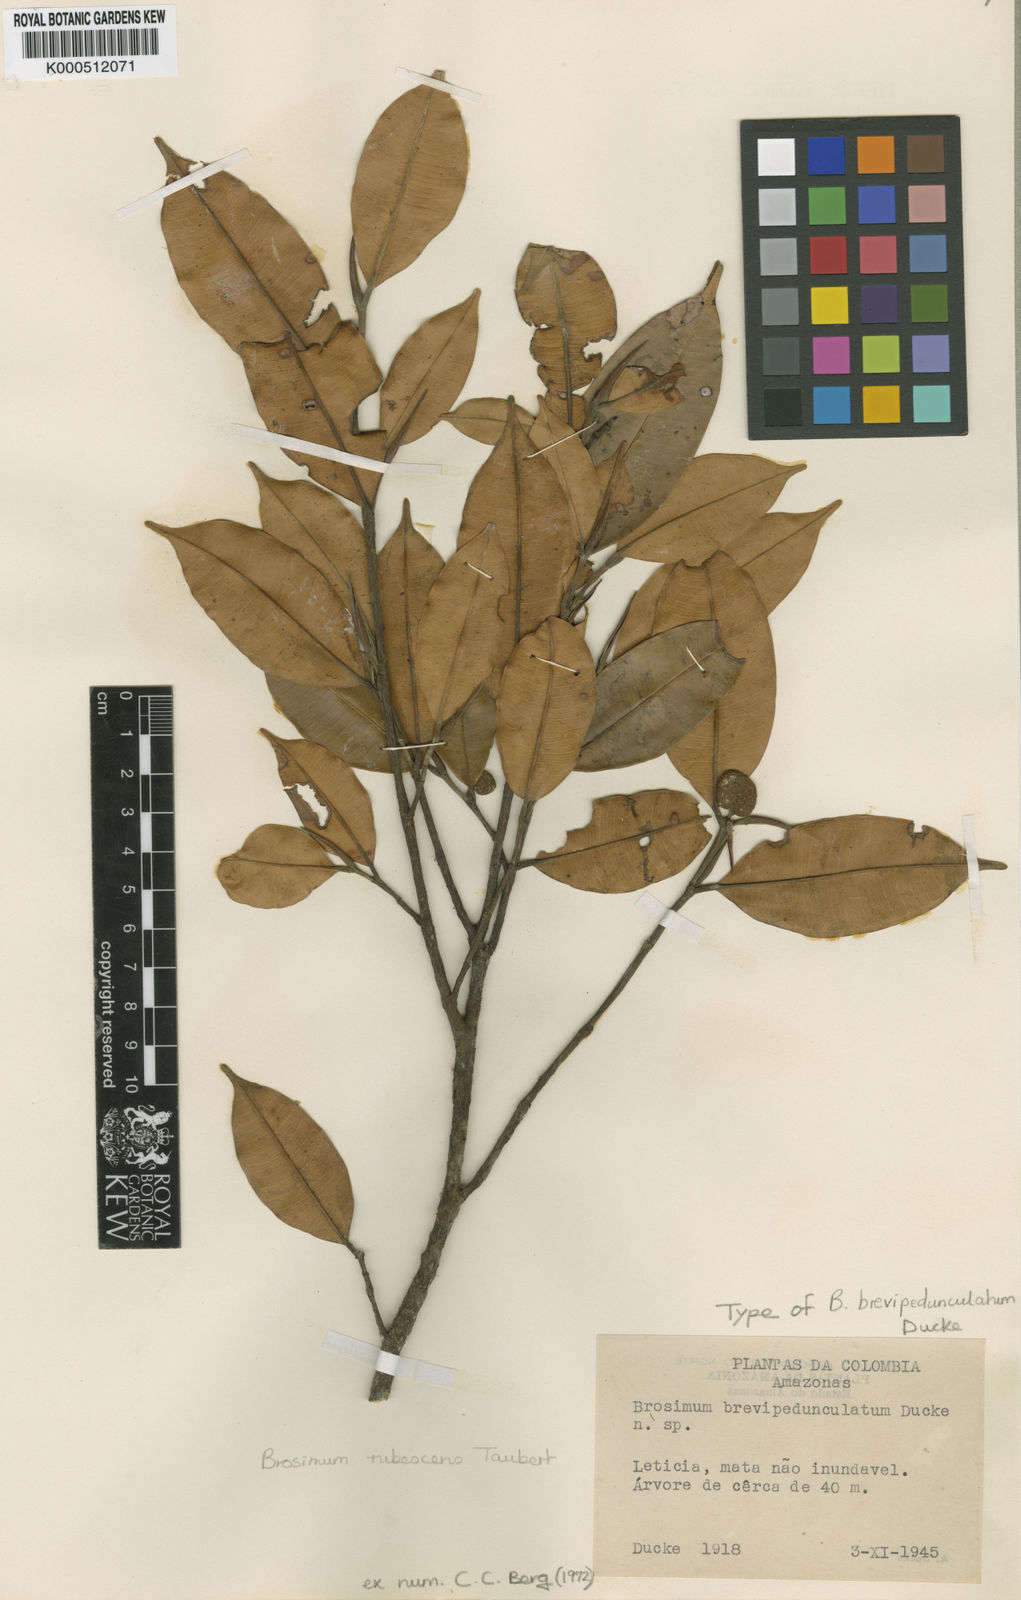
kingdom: Plantae
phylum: Tracheophyta
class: Magnoliopsida
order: Rosales
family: Moraceae
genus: Brosimum
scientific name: Brosimum rubescens
